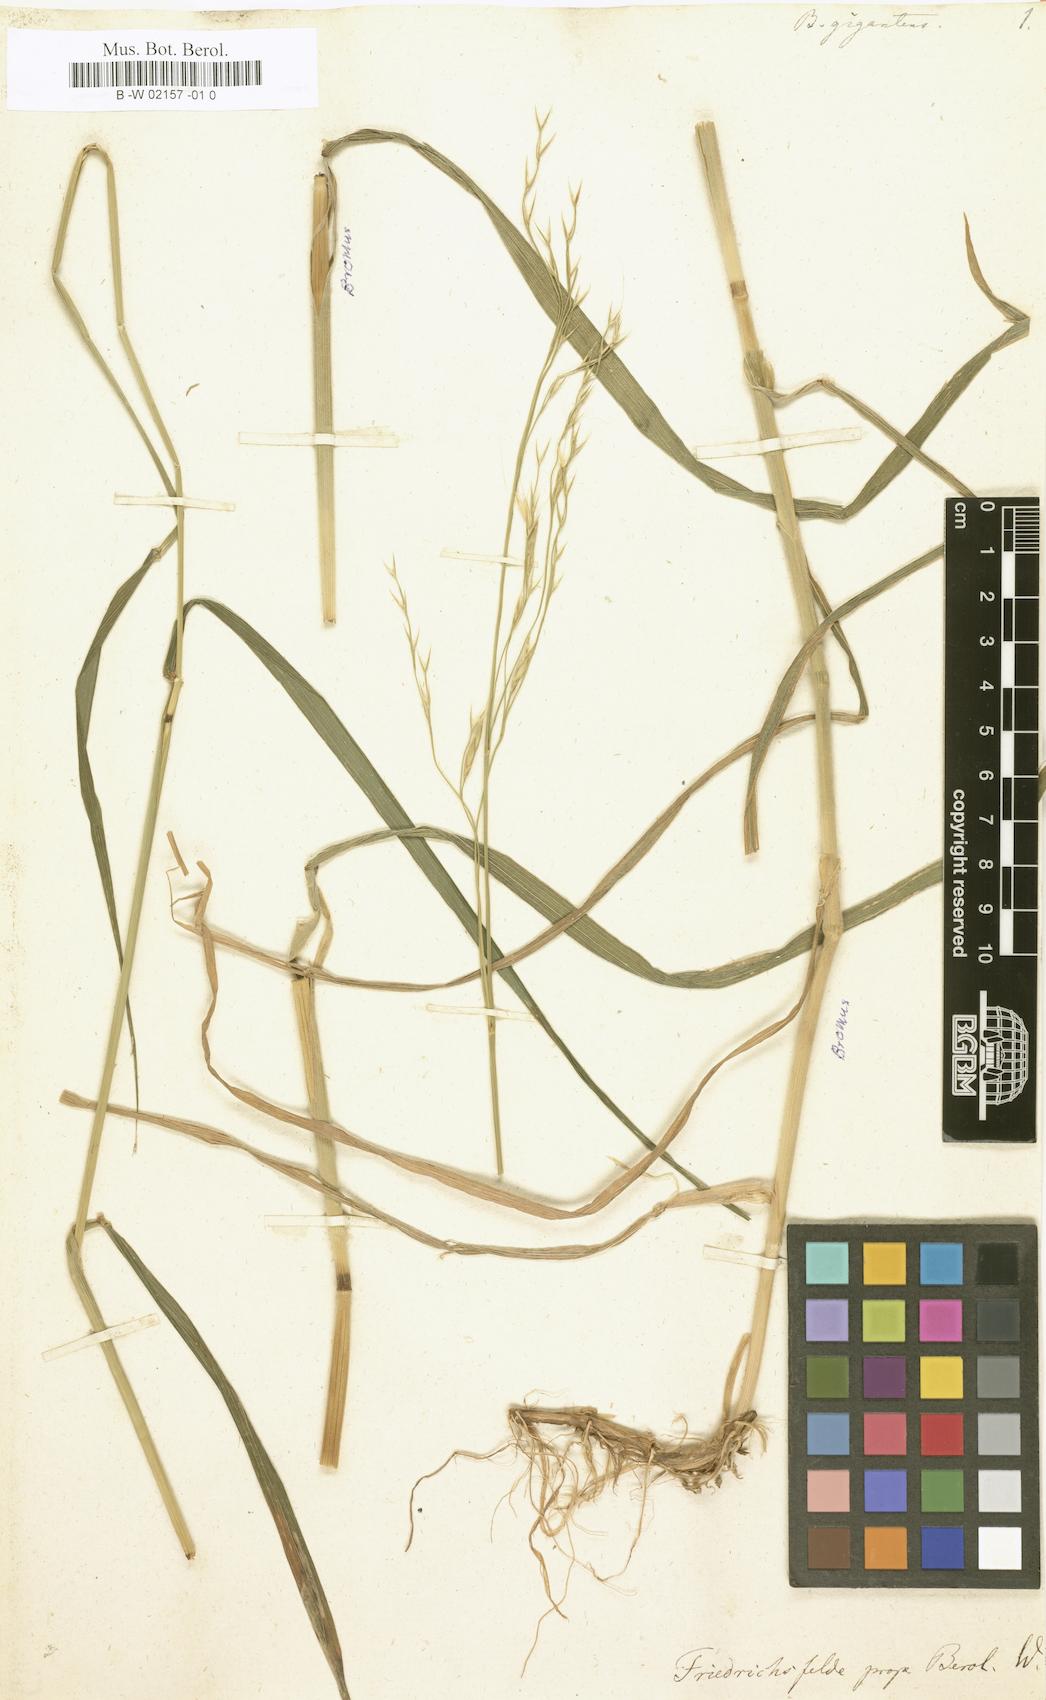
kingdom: Plantae
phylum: Tracheophyta
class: Liliopsida
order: Poales
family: Poaceae
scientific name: Poaceae
